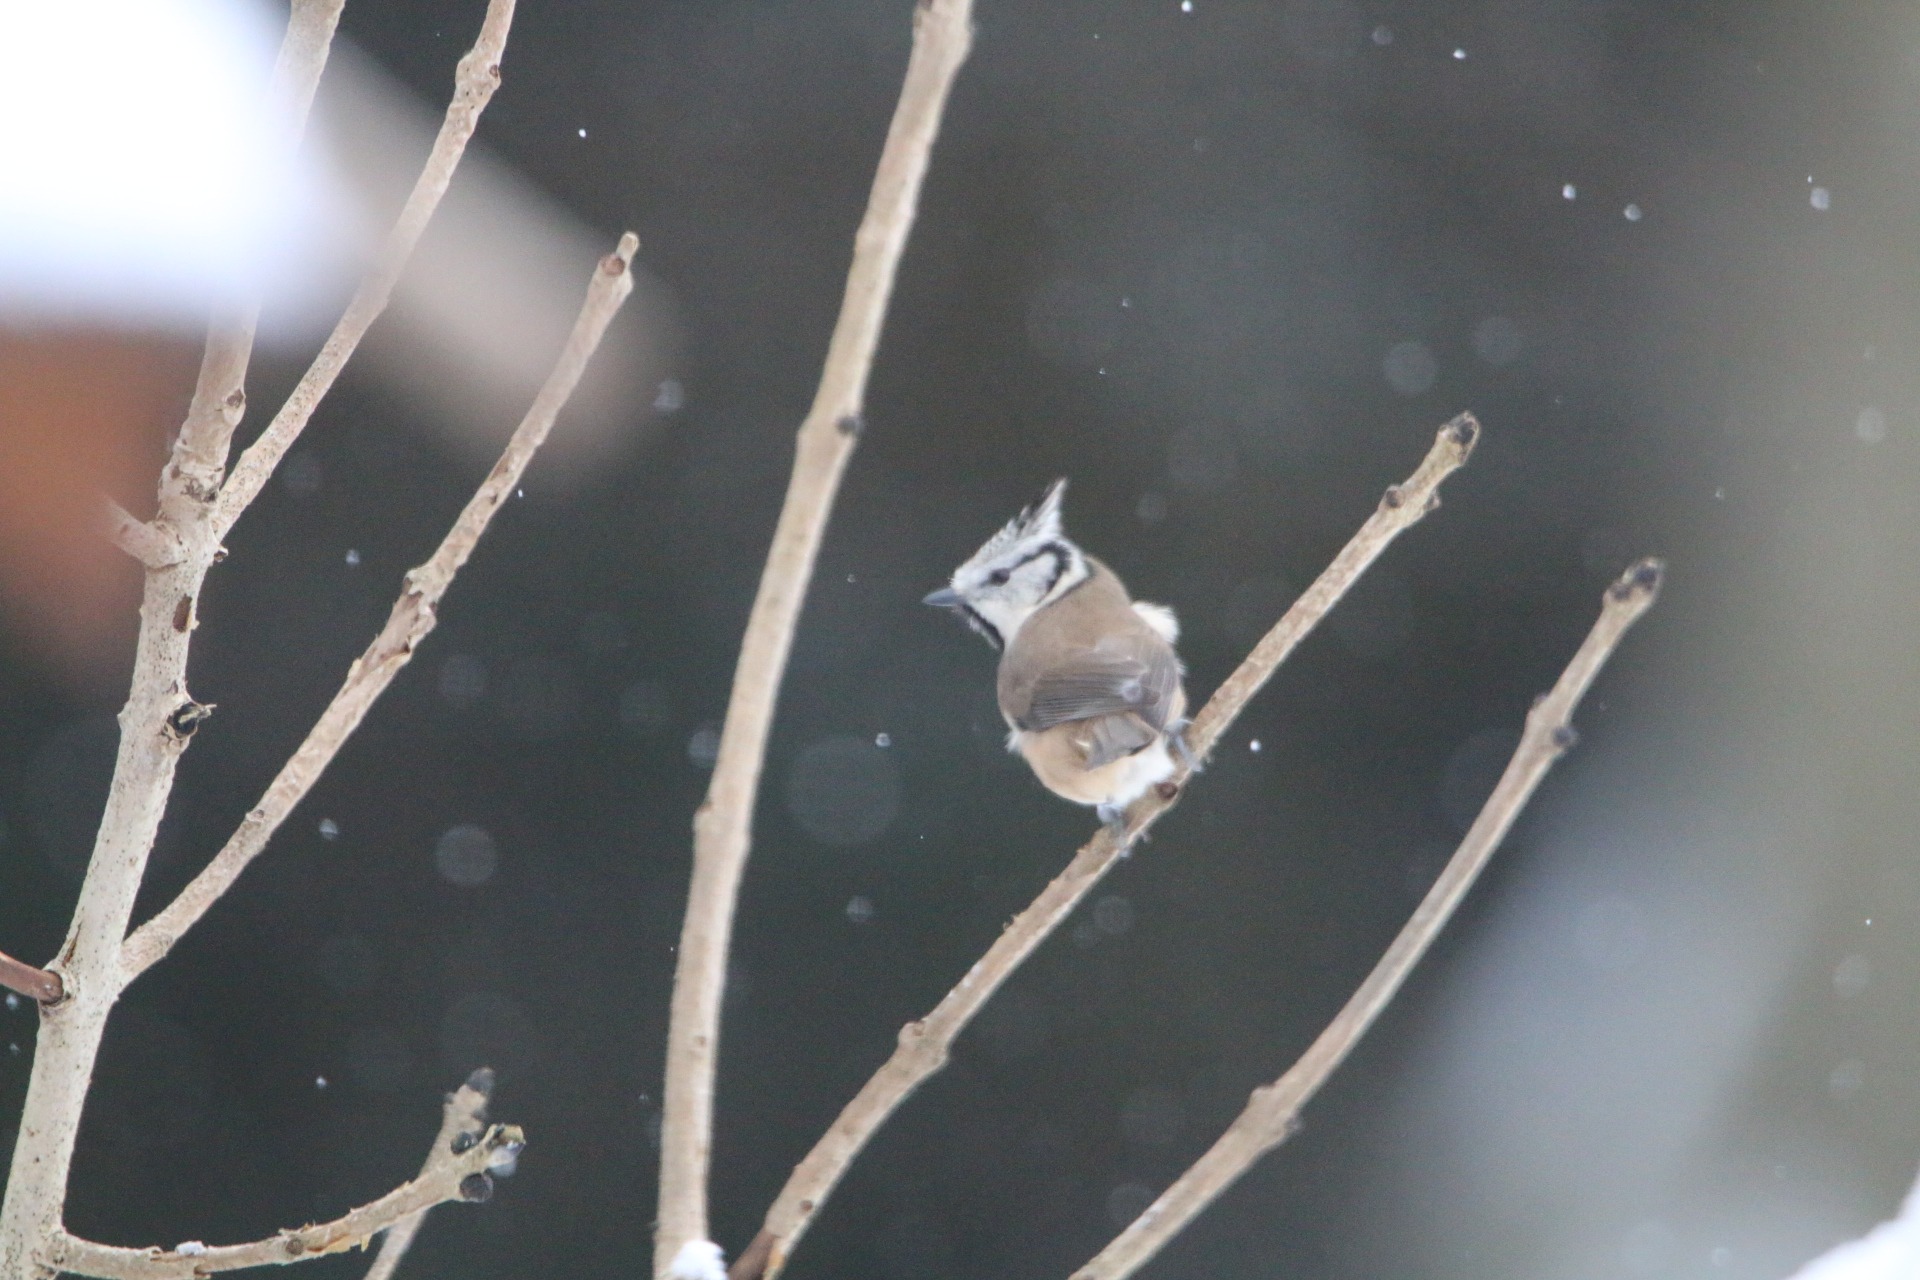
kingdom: Animalia
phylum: Chordata
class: Aves
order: Passeriformes
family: Paridae
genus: Lophophanes
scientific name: Lophophanes cristatus
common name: Topmejse
